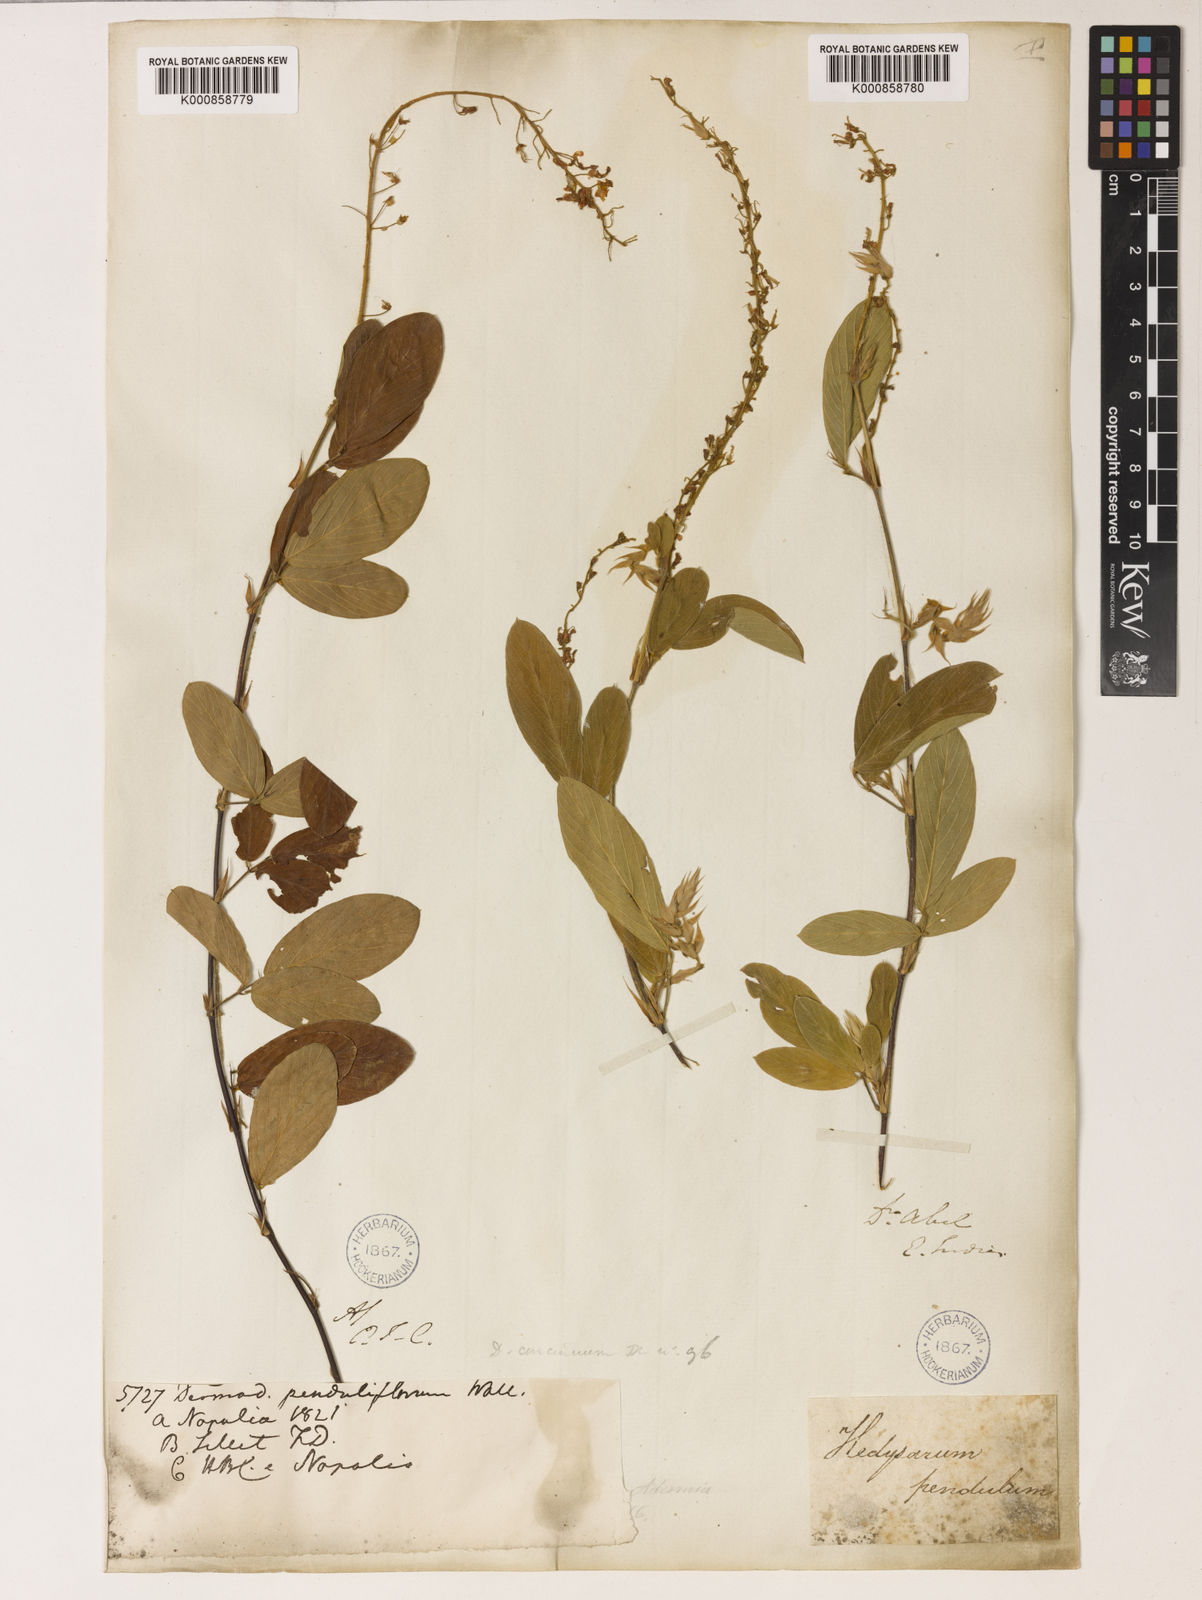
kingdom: Plantae
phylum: Tracheophyta
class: Magnoliopsida
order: Fabales
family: Fabaceae
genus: Tateishia
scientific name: Tateishia concinna
